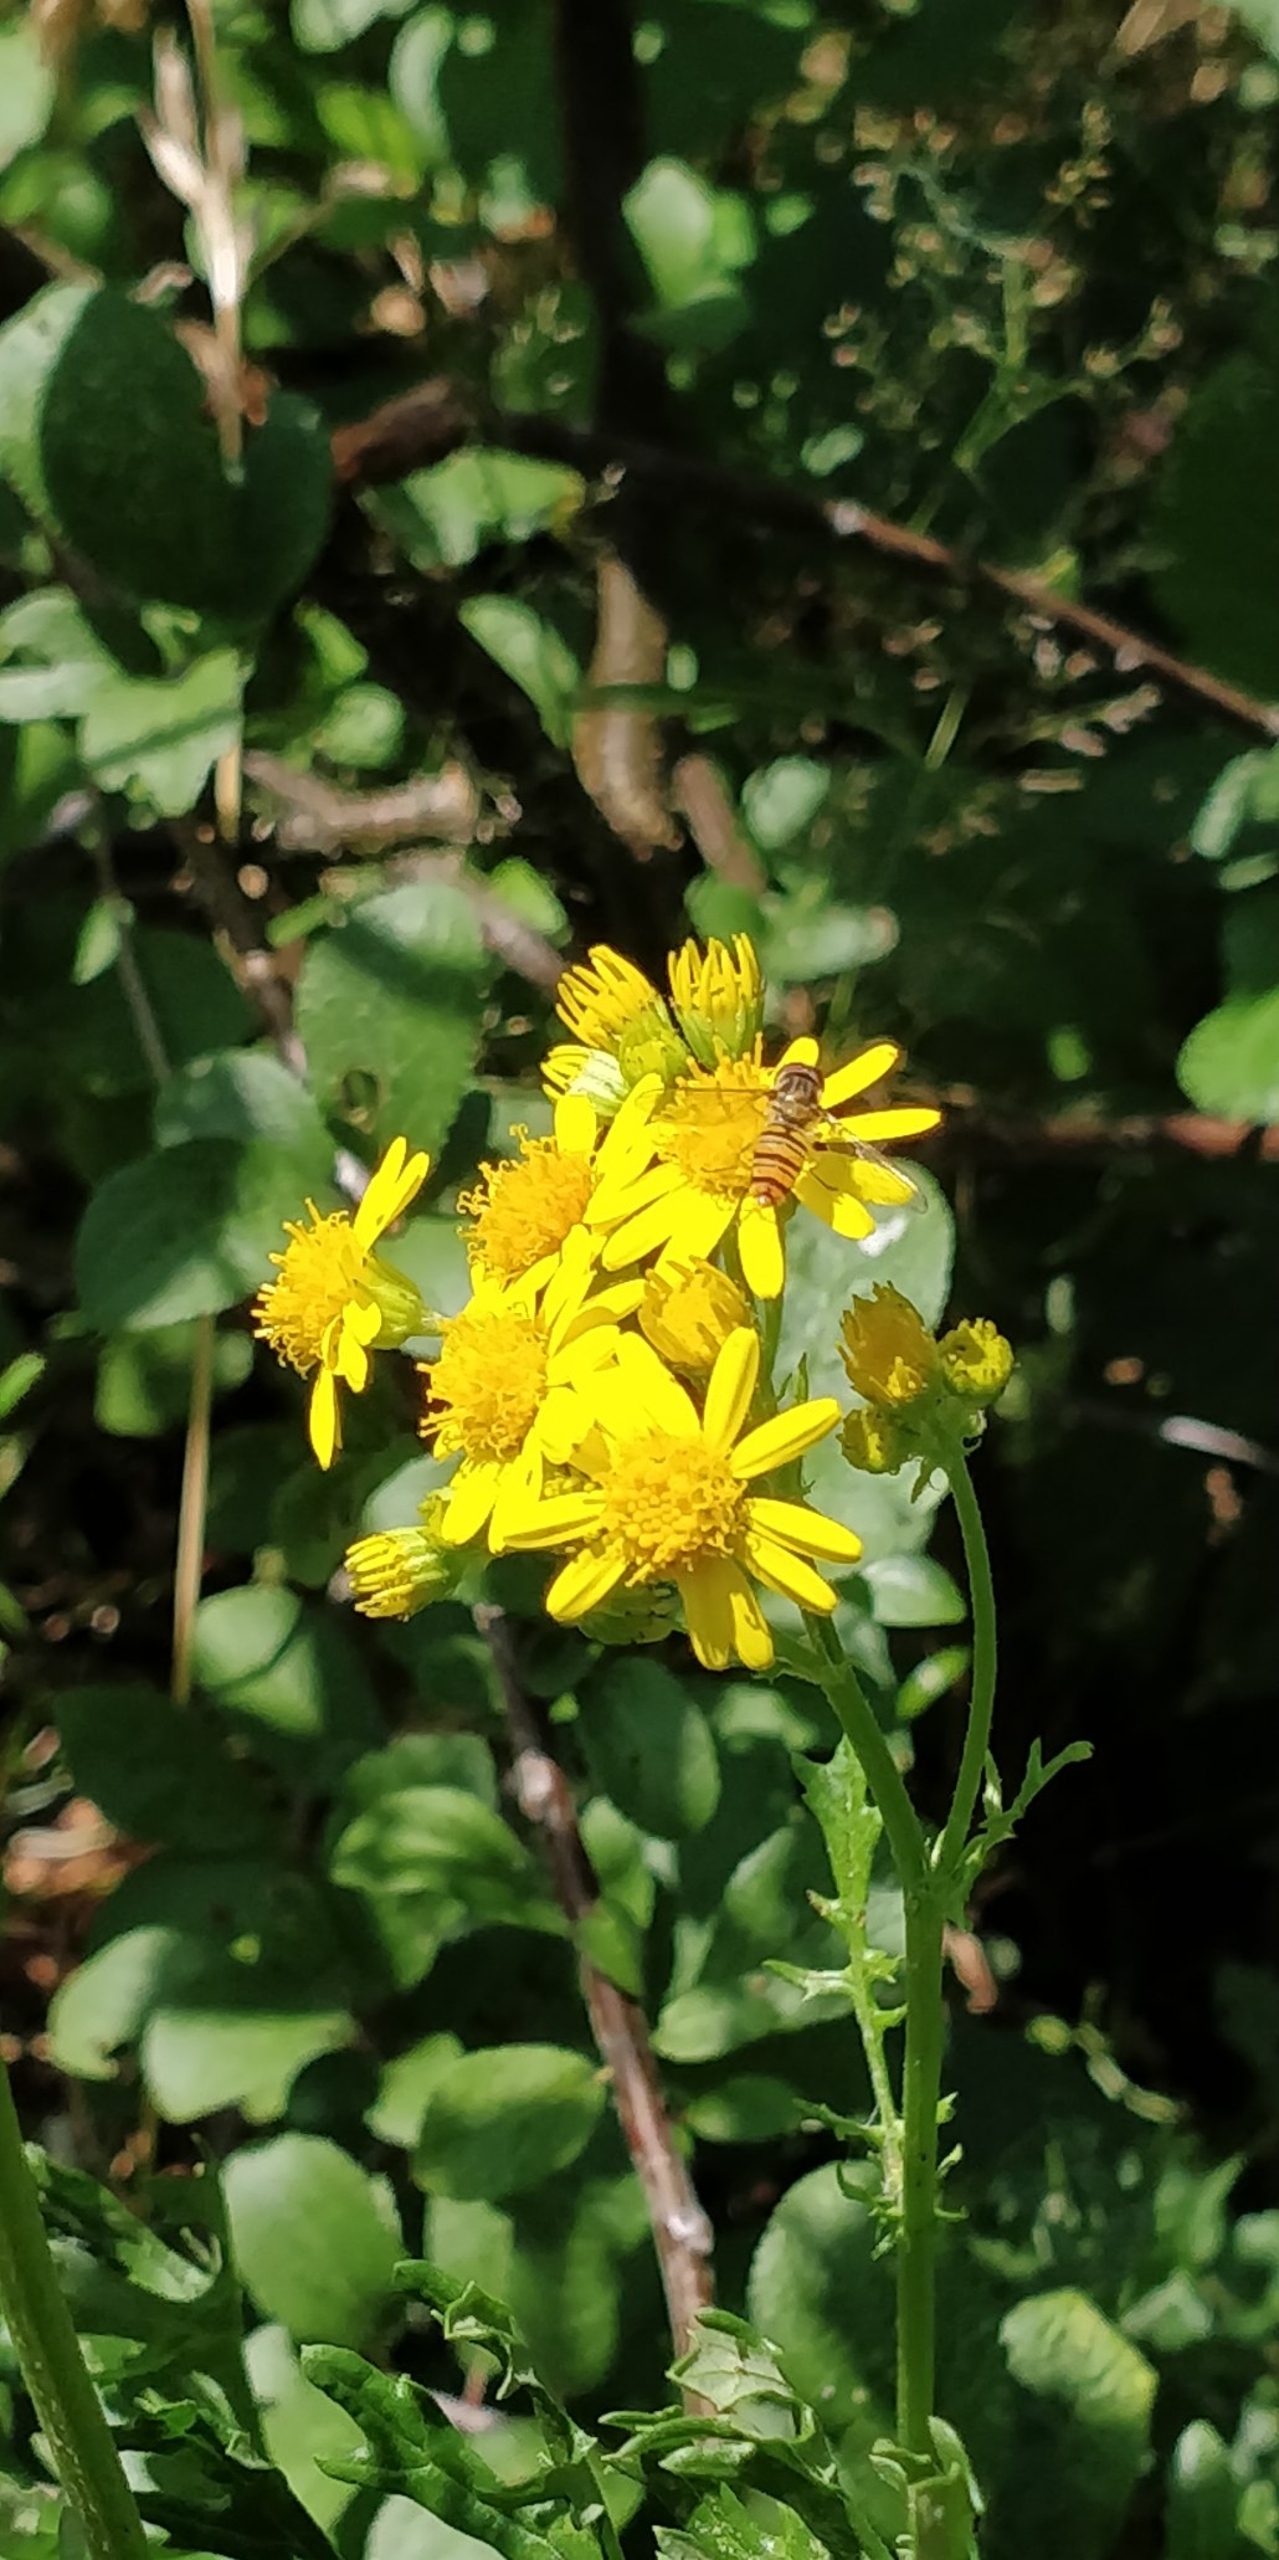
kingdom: Animalia
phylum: Arthropoda
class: Insecta
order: Diptera
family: Syrphidae
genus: Episyrphus
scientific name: Episyrphus balteatus
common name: Dobbeltbåndet svirreflue
